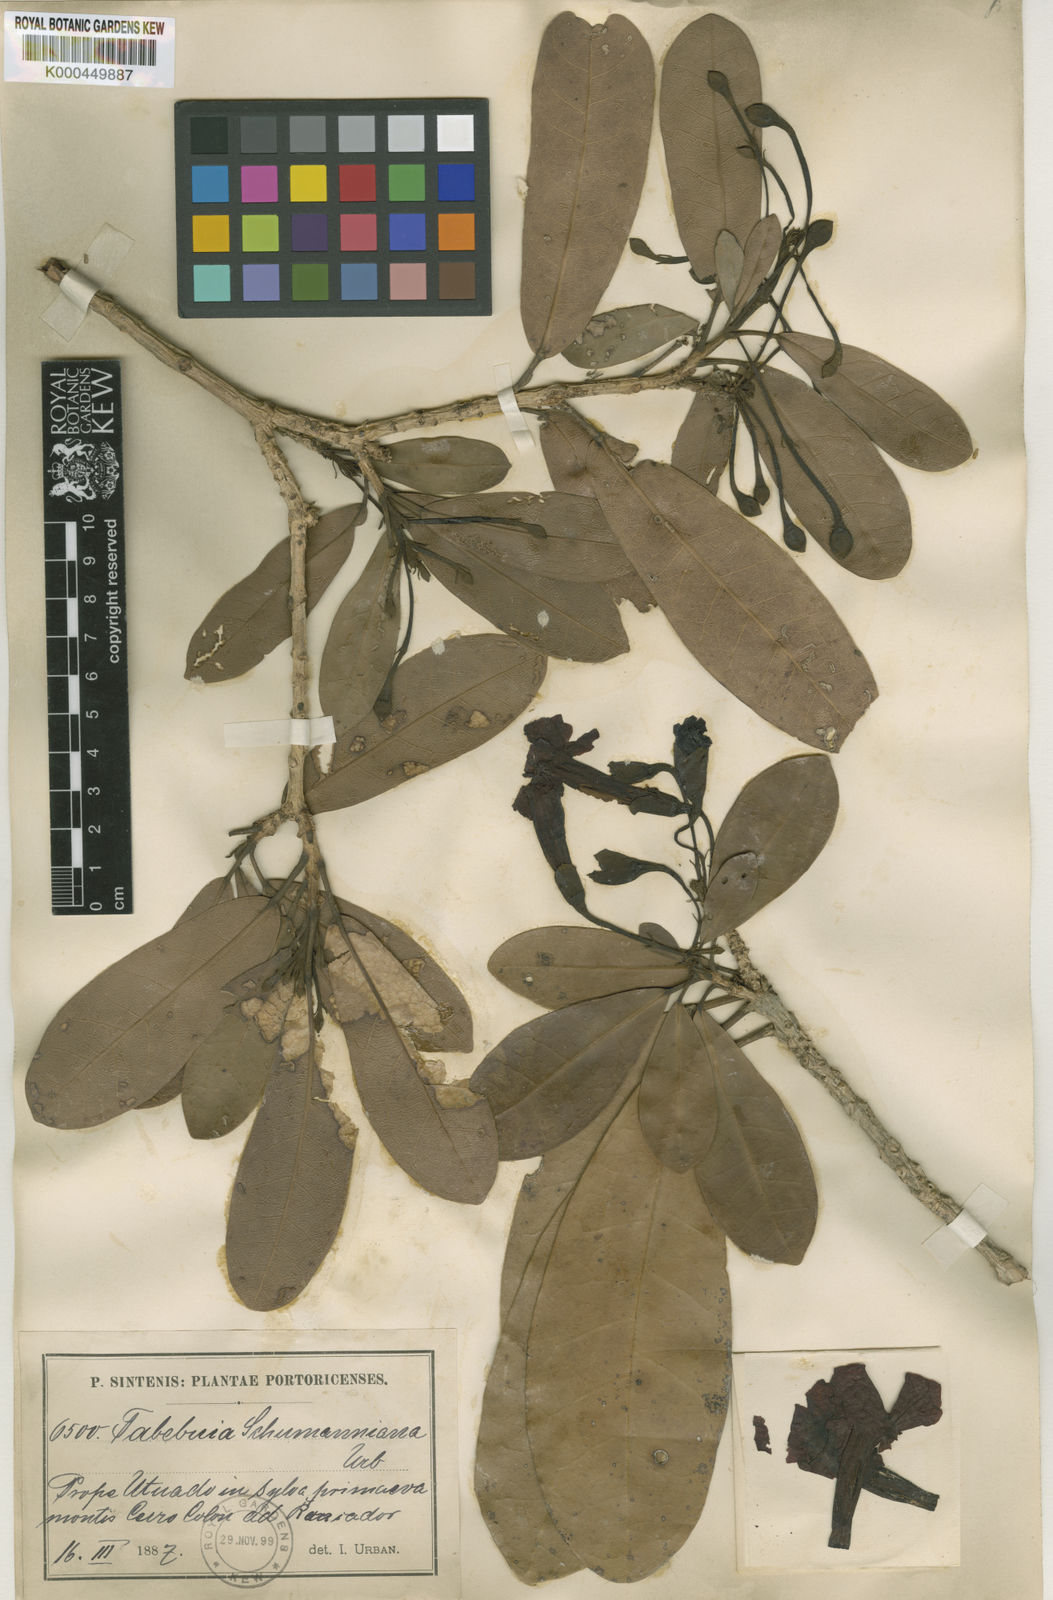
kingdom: Plantae
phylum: Tracheophyta
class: Magnoliopsida
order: Lamiales
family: Bignoniaceae
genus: Tabebuia
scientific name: Tabebuia schumanniana
